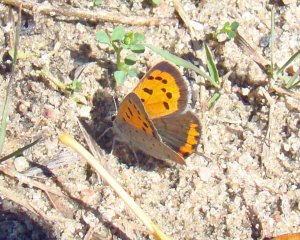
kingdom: Animalia
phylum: Arthropoda
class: Insecta
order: Lepidoptera
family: Lycaenidae
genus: Lycaena
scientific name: Lycaena phlaeas
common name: American Copper
